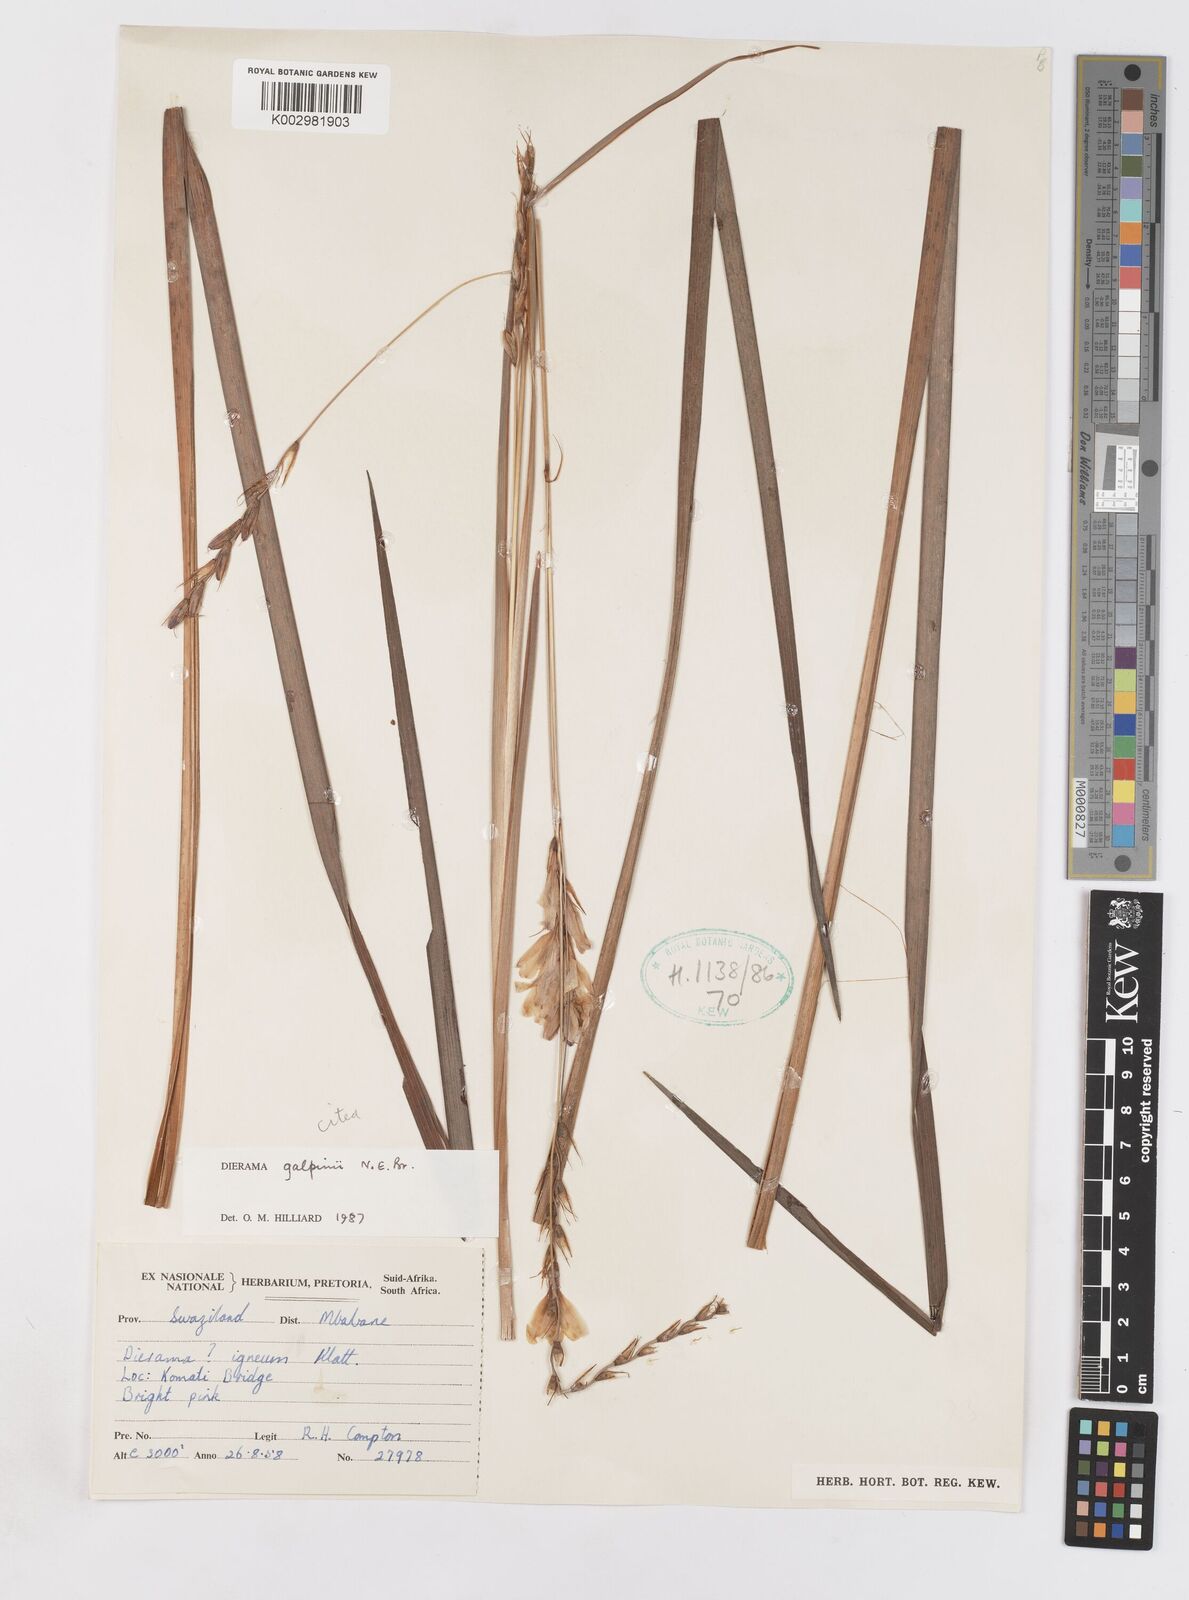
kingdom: Plantae
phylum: Tracheophyta
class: Liliopsida
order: Asparagales
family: Iridaceae
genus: Dierama
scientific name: Dierama galpinii
